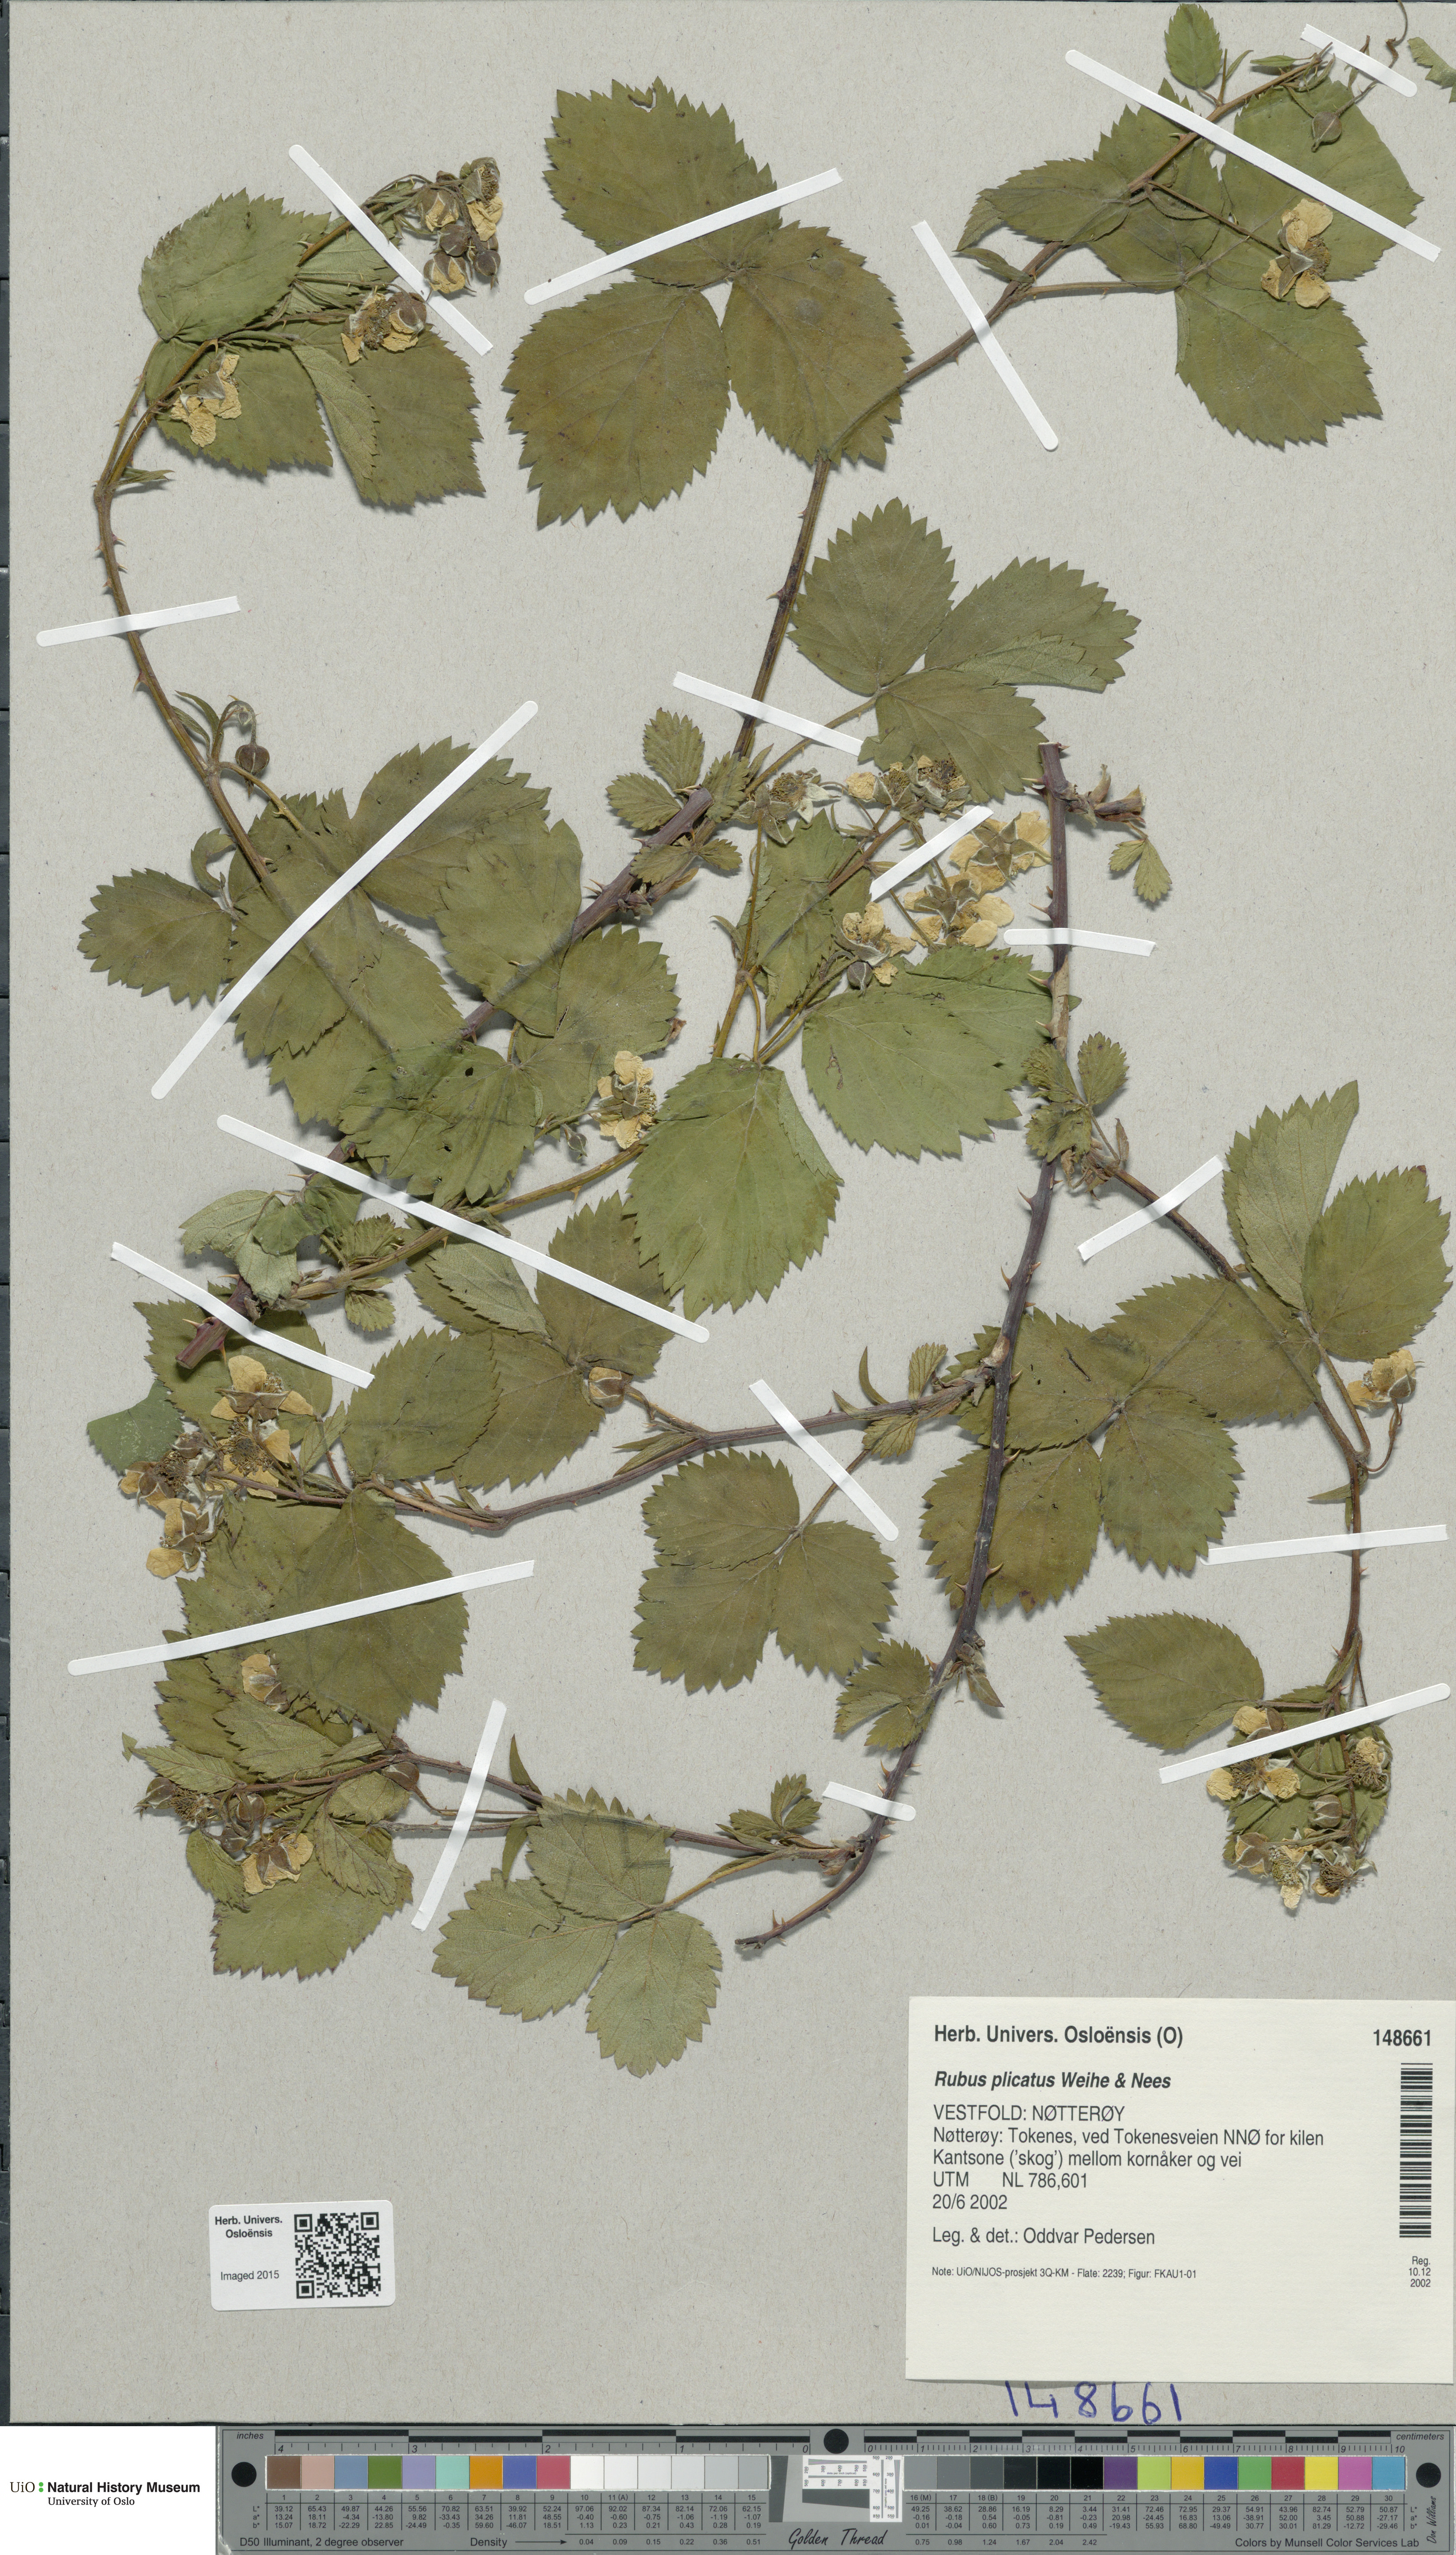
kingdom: Plantae
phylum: Tracheophyta
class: Magnoliopsida
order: Rosales
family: Rosaceae
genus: Rubus
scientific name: Rubus fruticosus
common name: Blackberry, bramble
